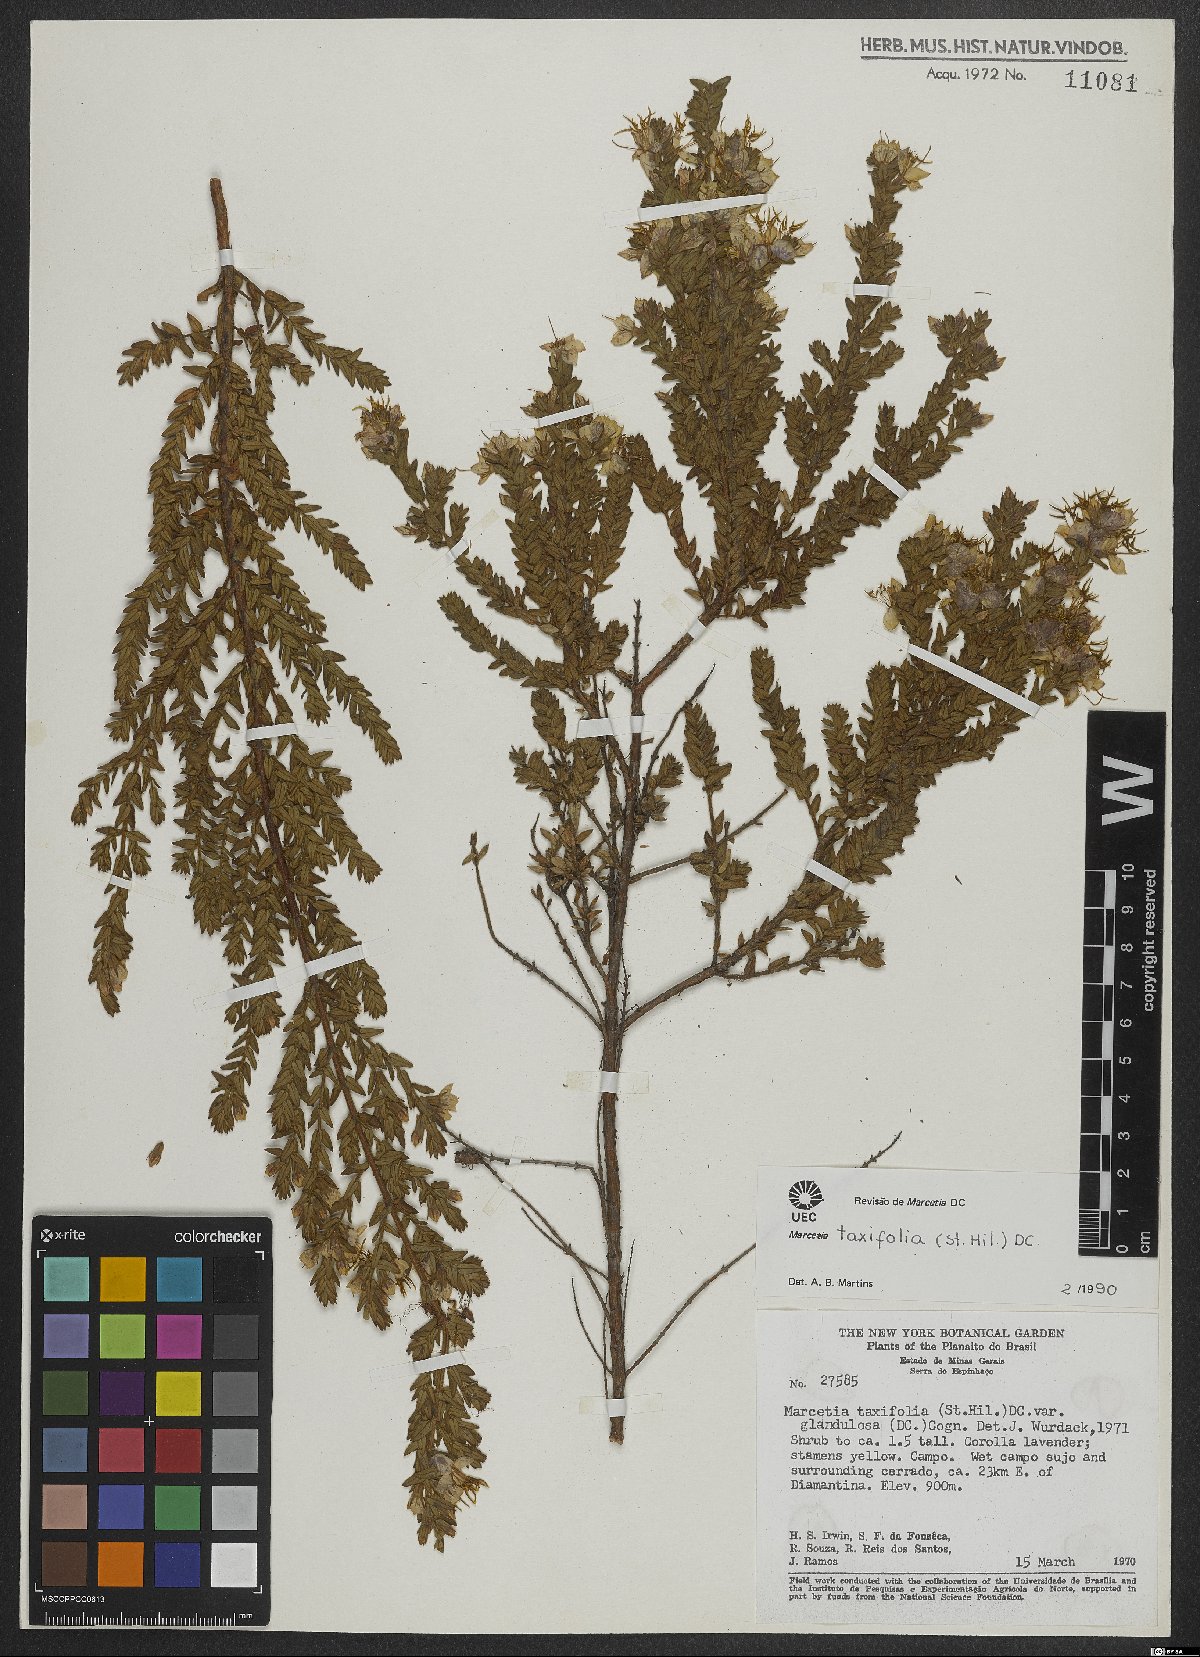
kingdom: Plantae
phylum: Tracheophyta
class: Magnoliopsida
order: Myrtales
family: Melastomataceae
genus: Marcetia
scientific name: Marcetia taxifolia
